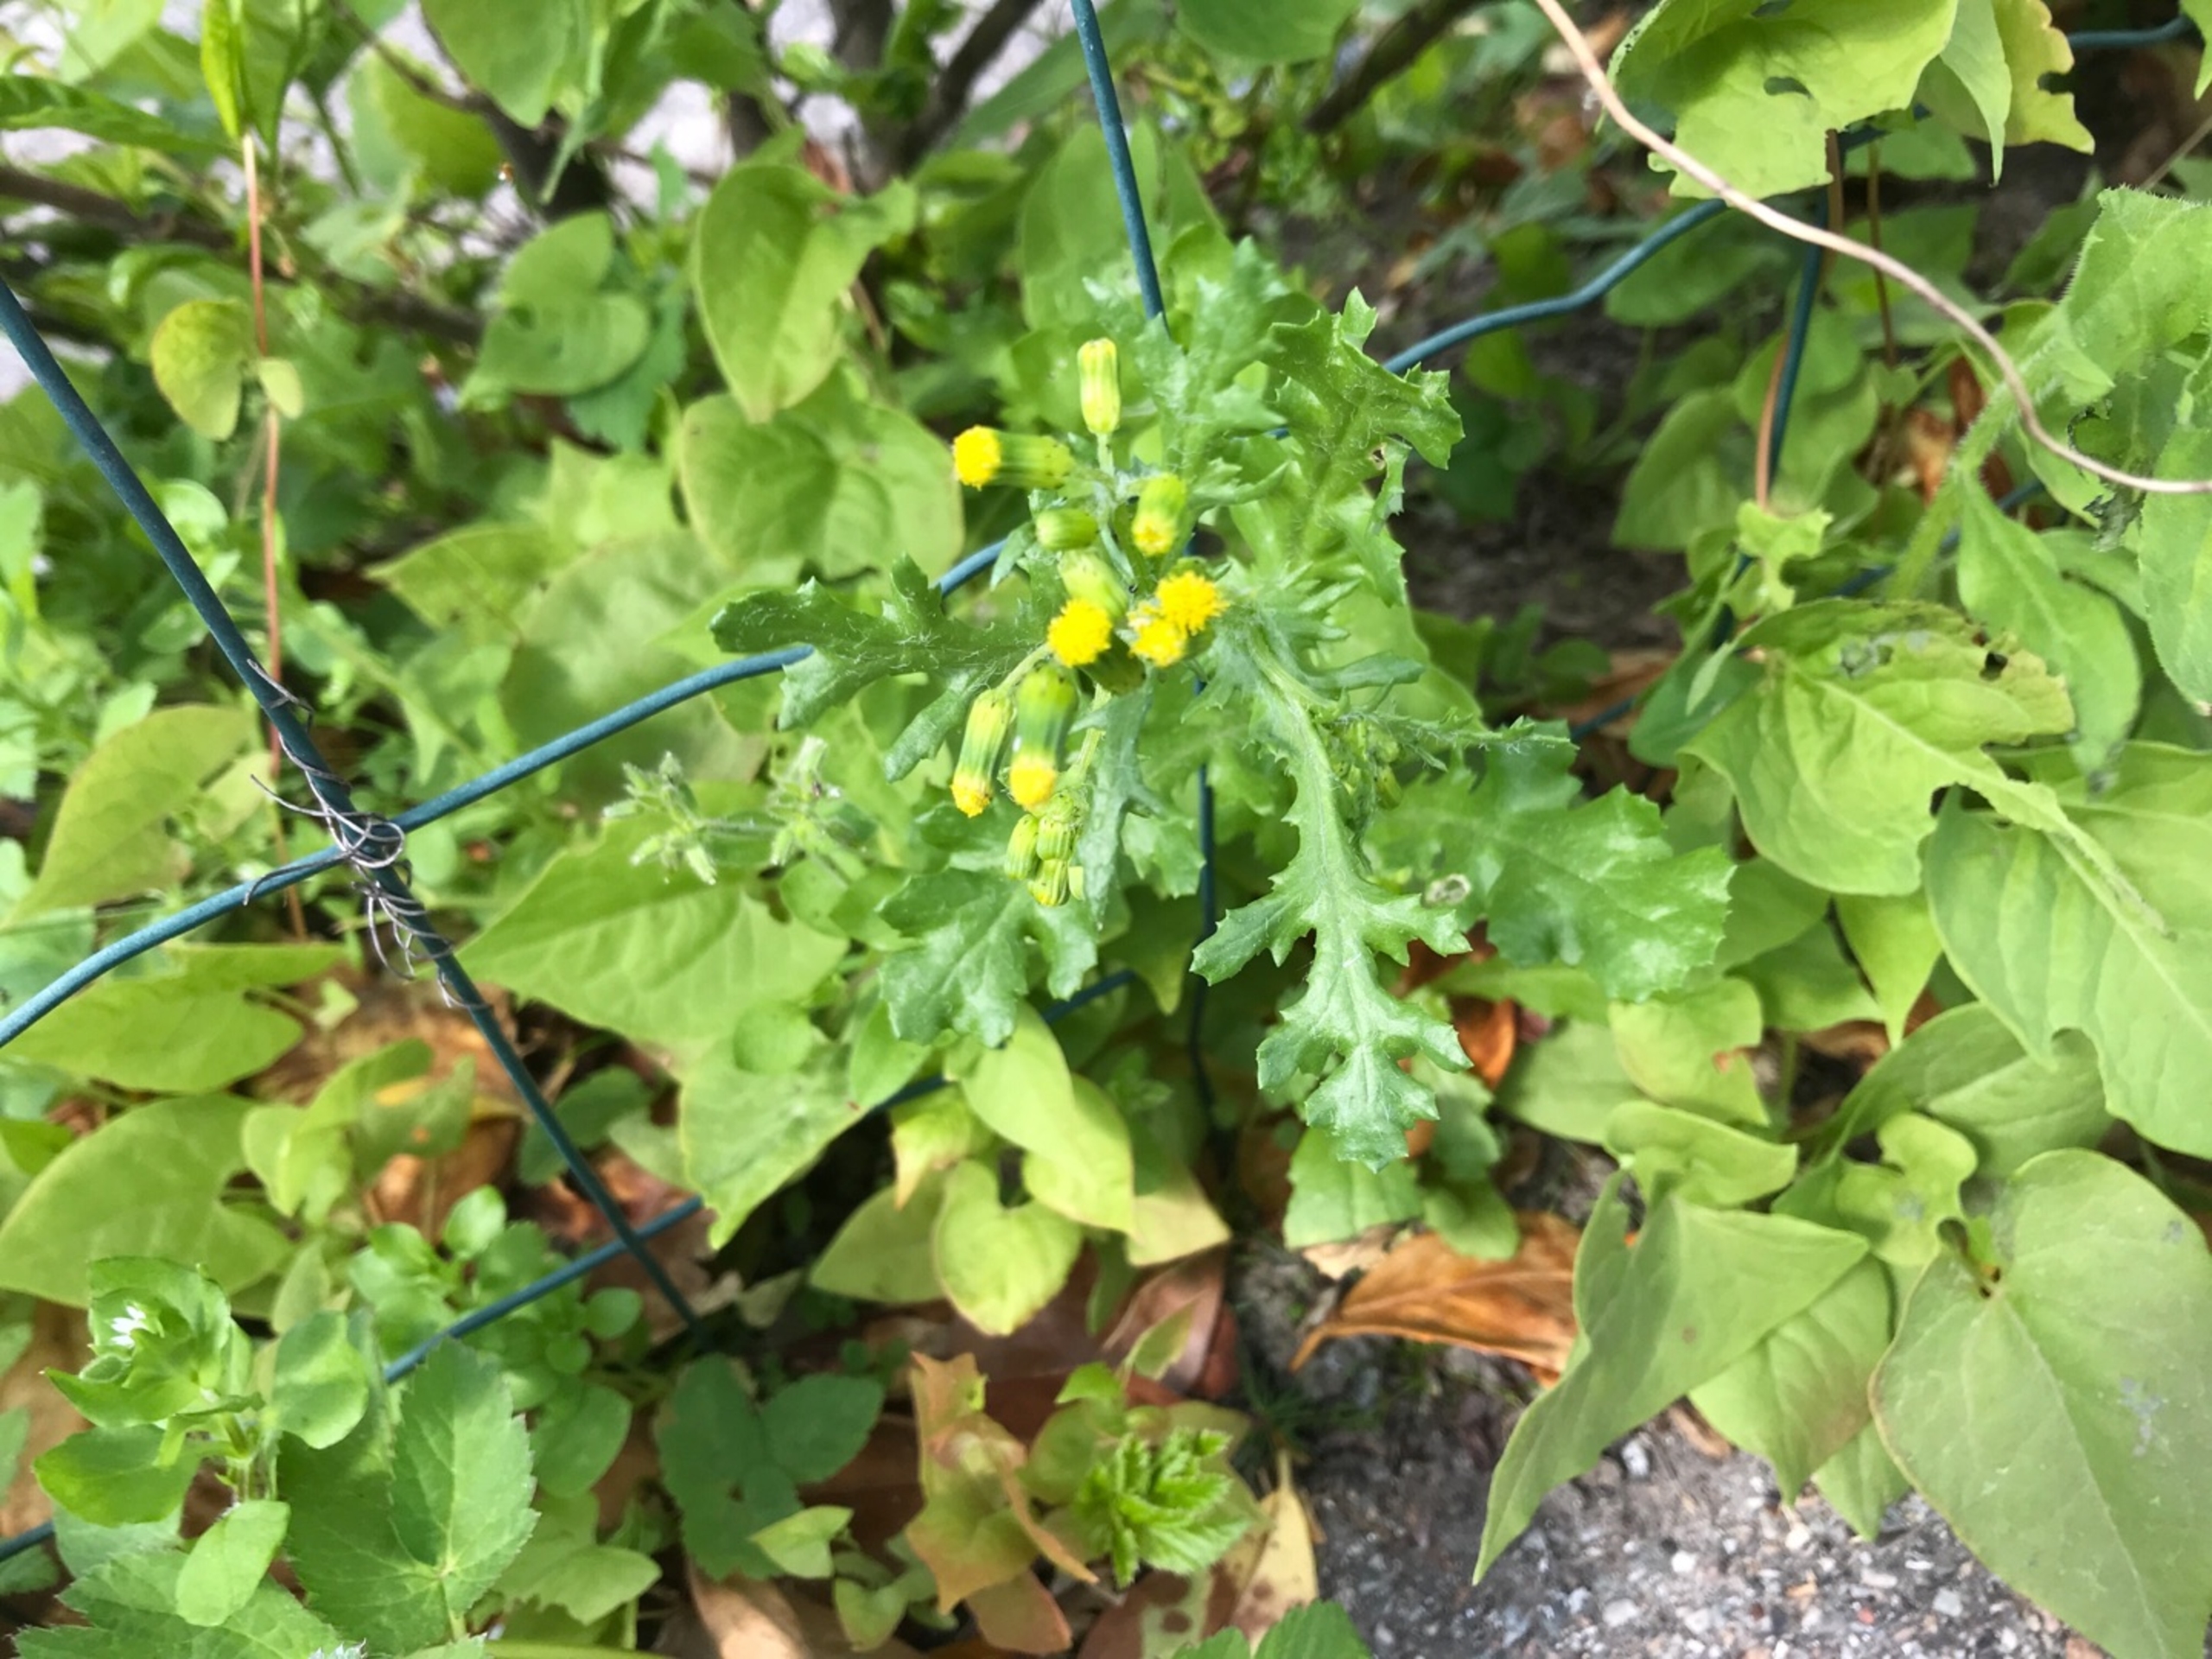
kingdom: Plantae
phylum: Tracheophyta
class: Magnoliopsida
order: Asterales
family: Asteraceae
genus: Senecio
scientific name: Senecio vulgaris
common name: Almindelig brandbæger
